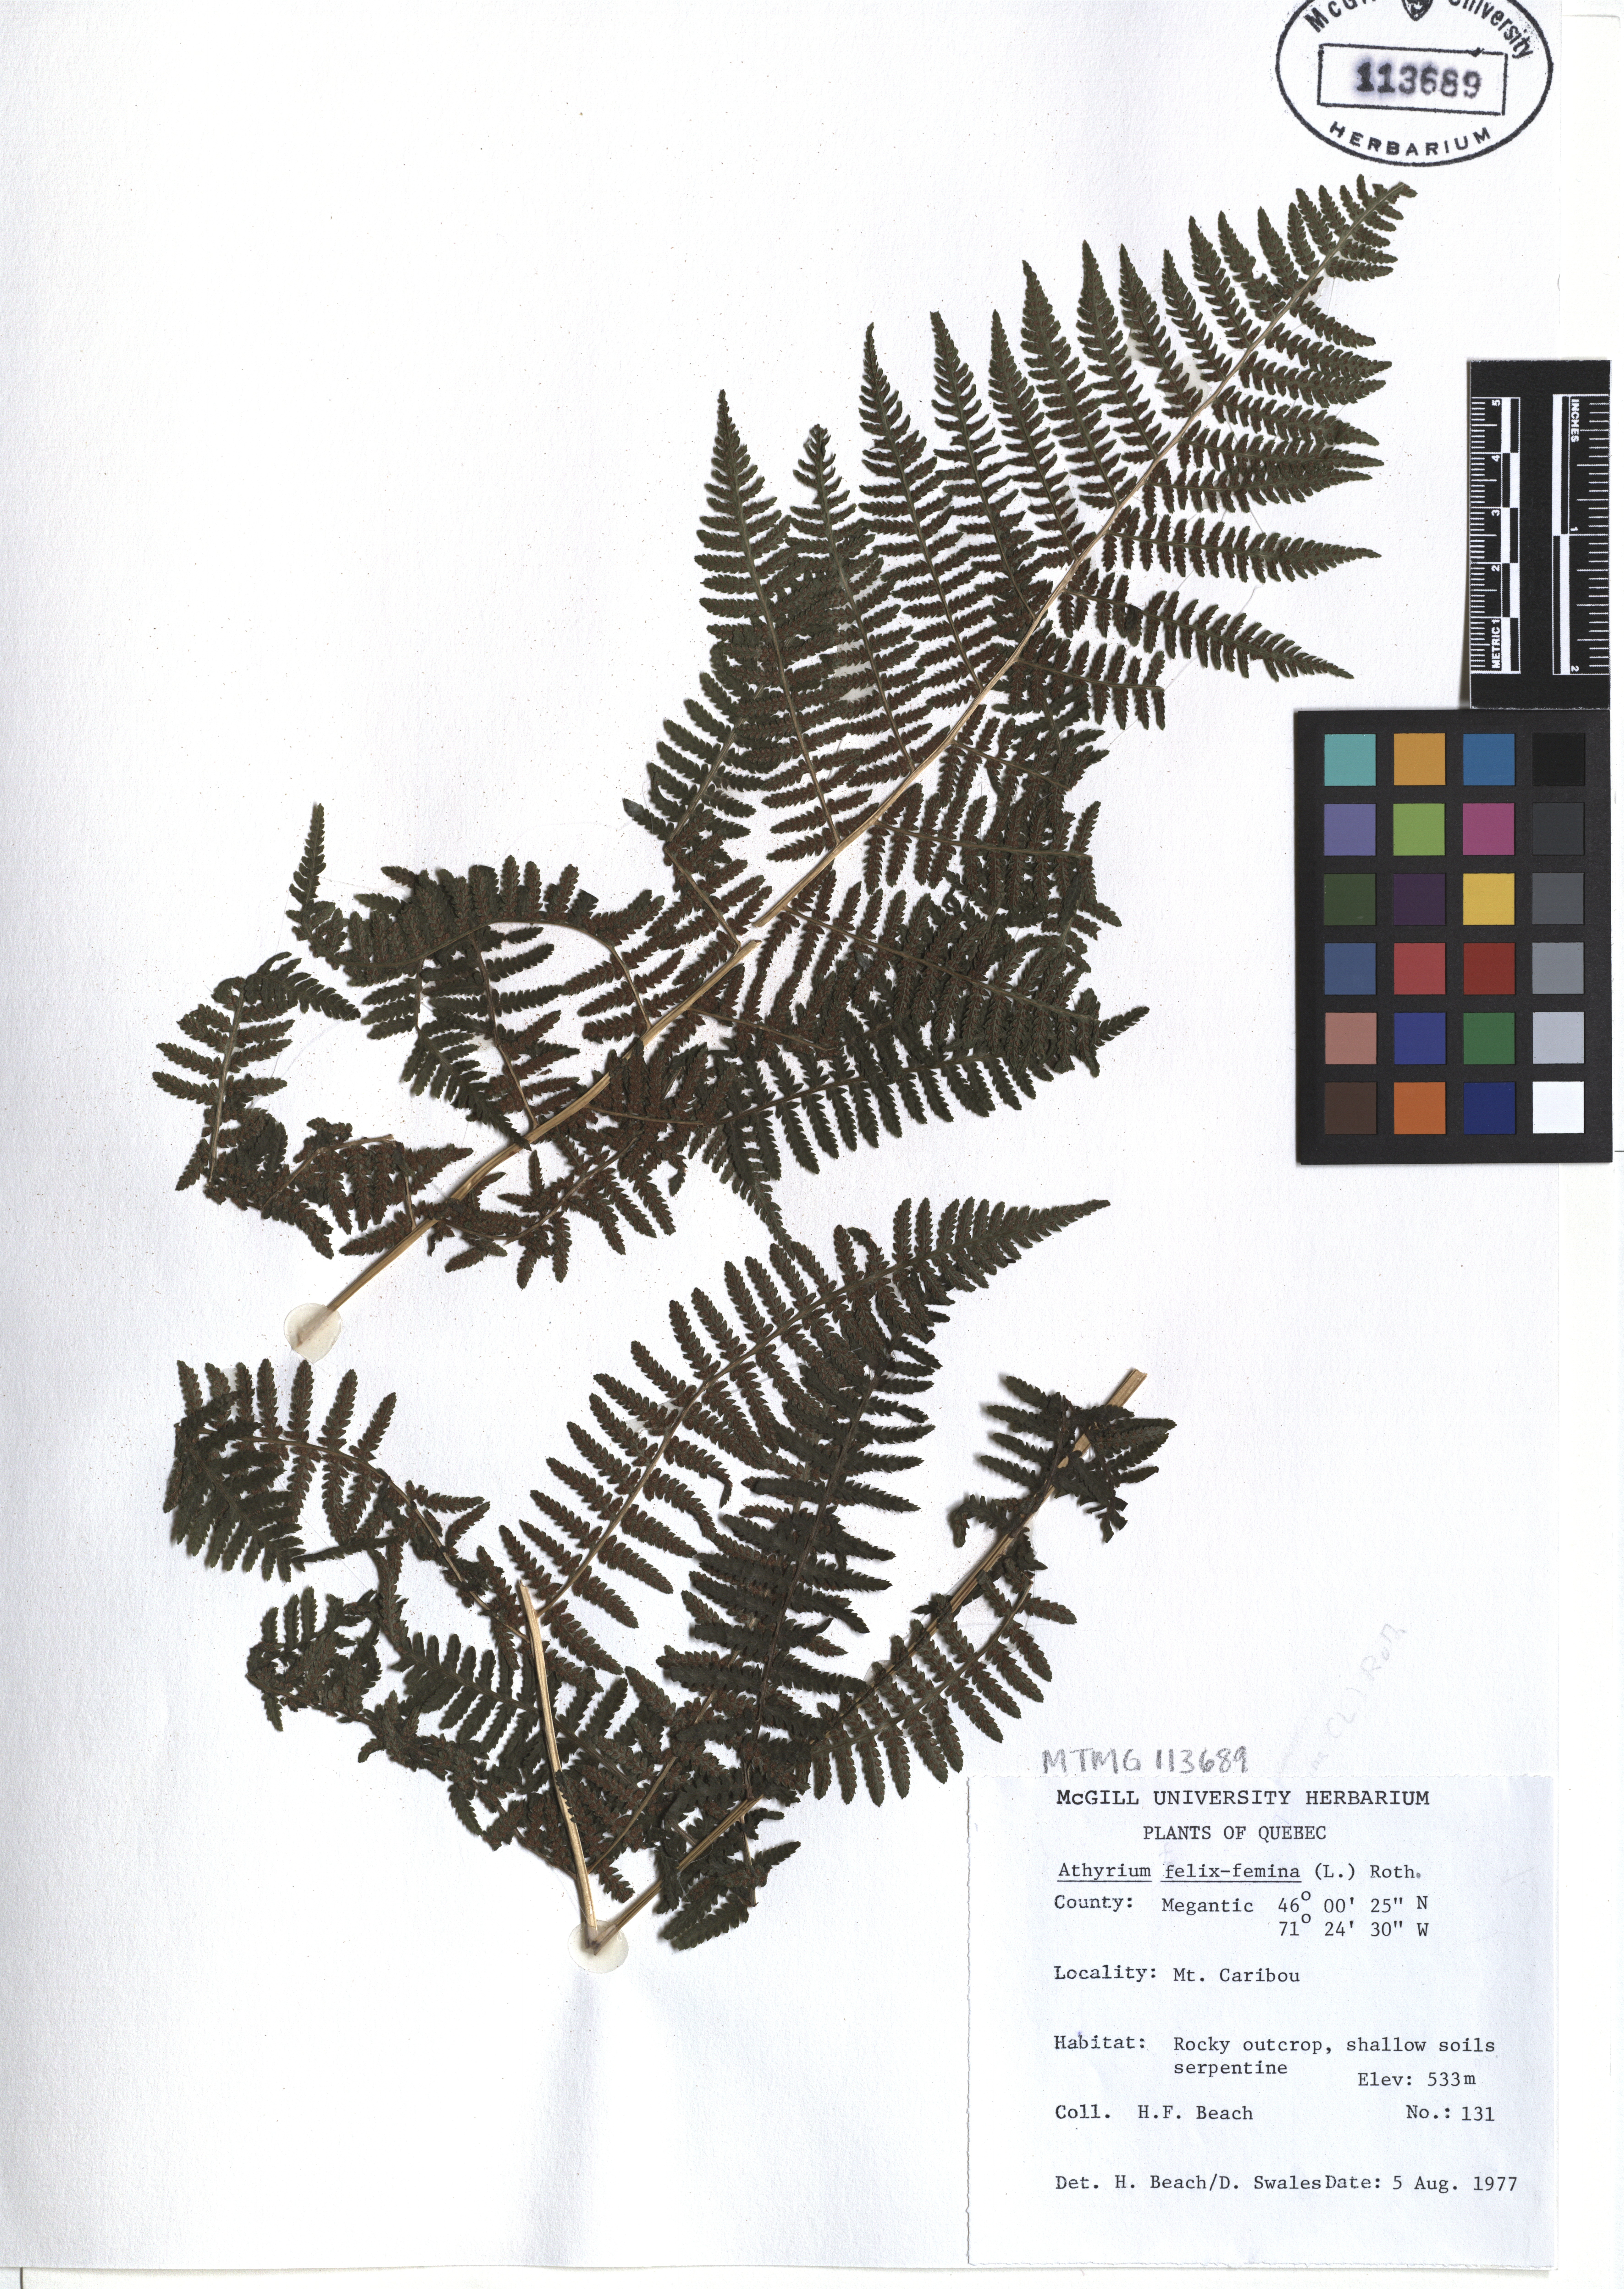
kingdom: Plantae
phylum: Tracheophyta
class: Polypodiopsida
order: Polypodiales
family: Athyriaceae
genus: Athyrium
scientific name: Athyrium filix-femina
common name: Lady fern
